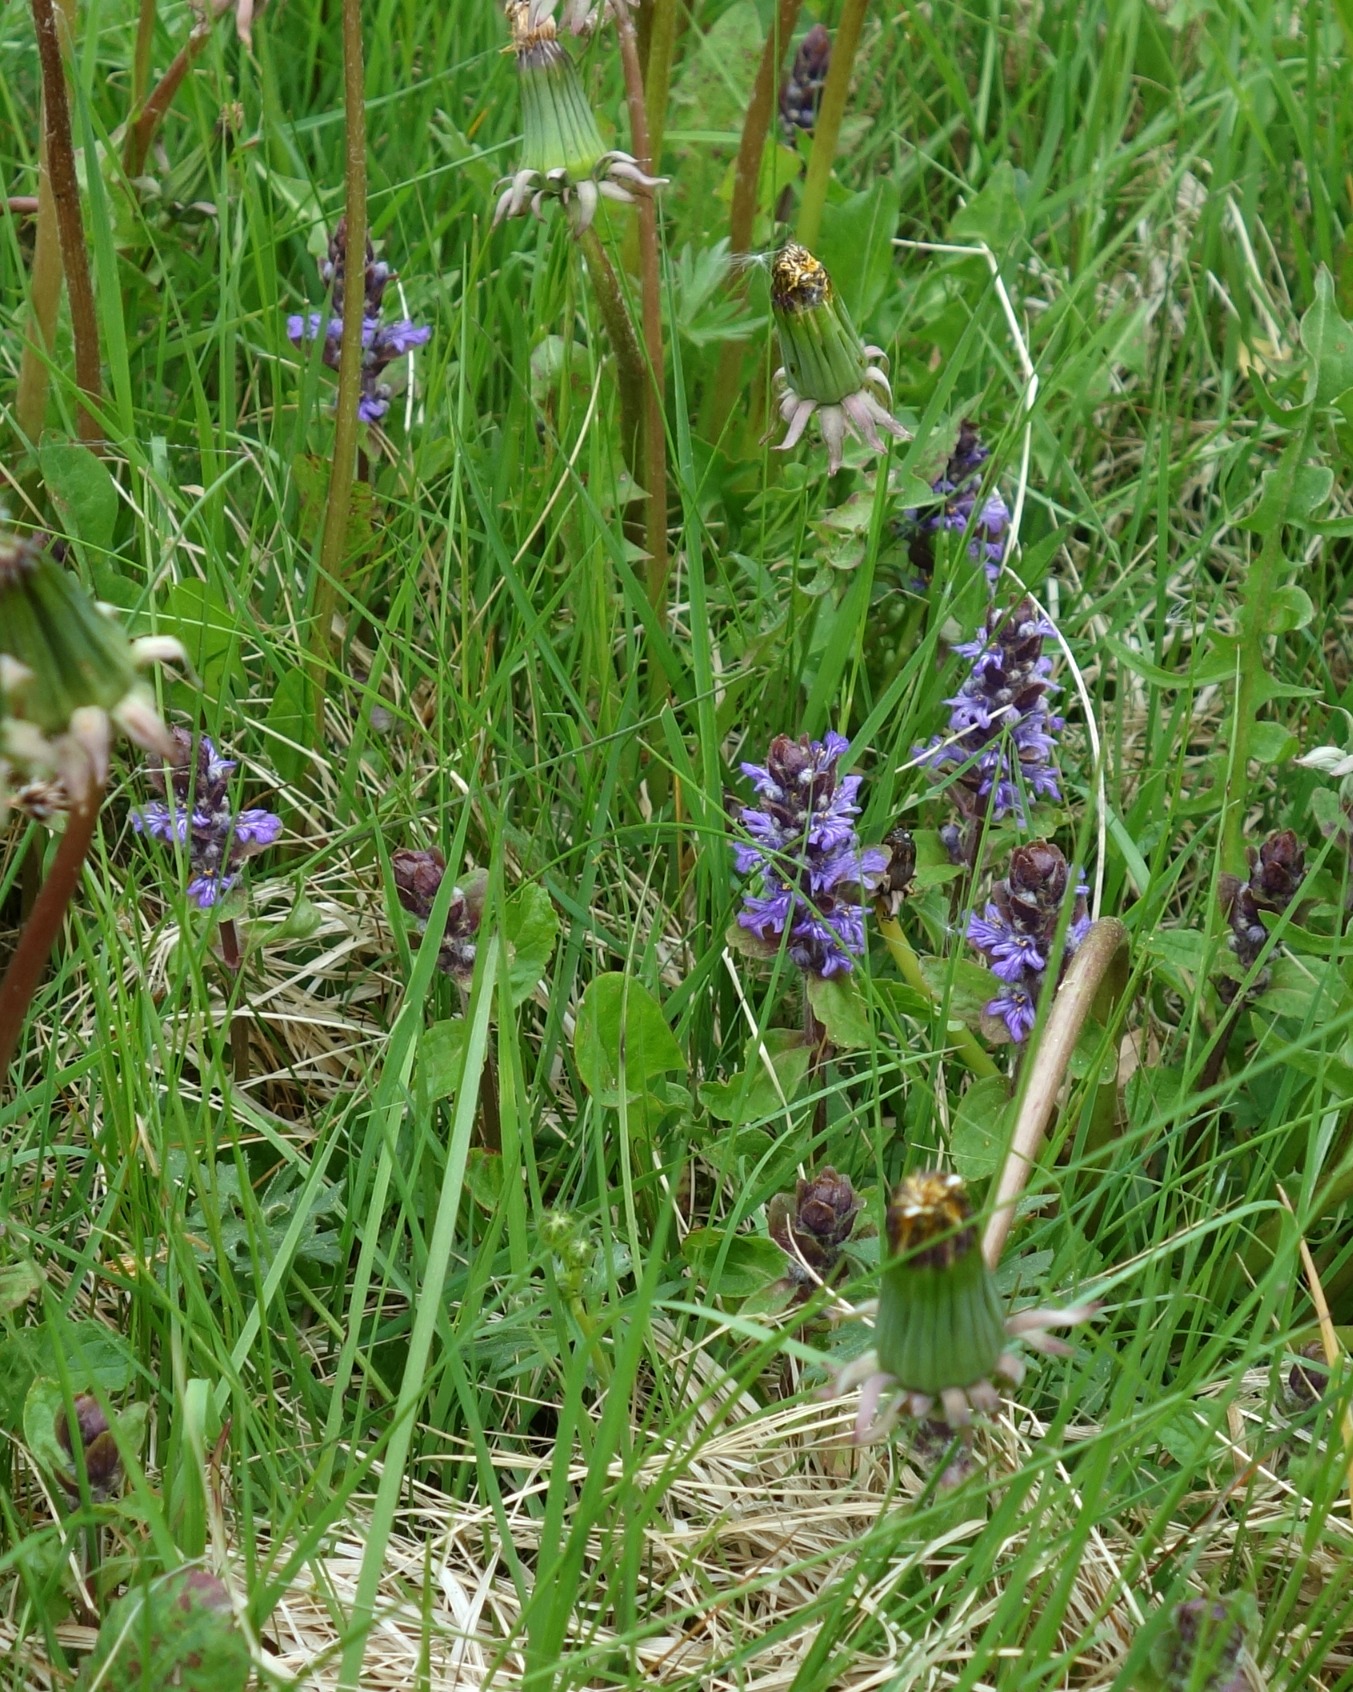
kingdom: Plantae
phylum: Tracheophyta
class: Magnoliopsida
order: Lamiales
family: Lamiaceae
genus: Ajuga
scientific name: Ajuga reptans
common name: Krybende læbeløs
